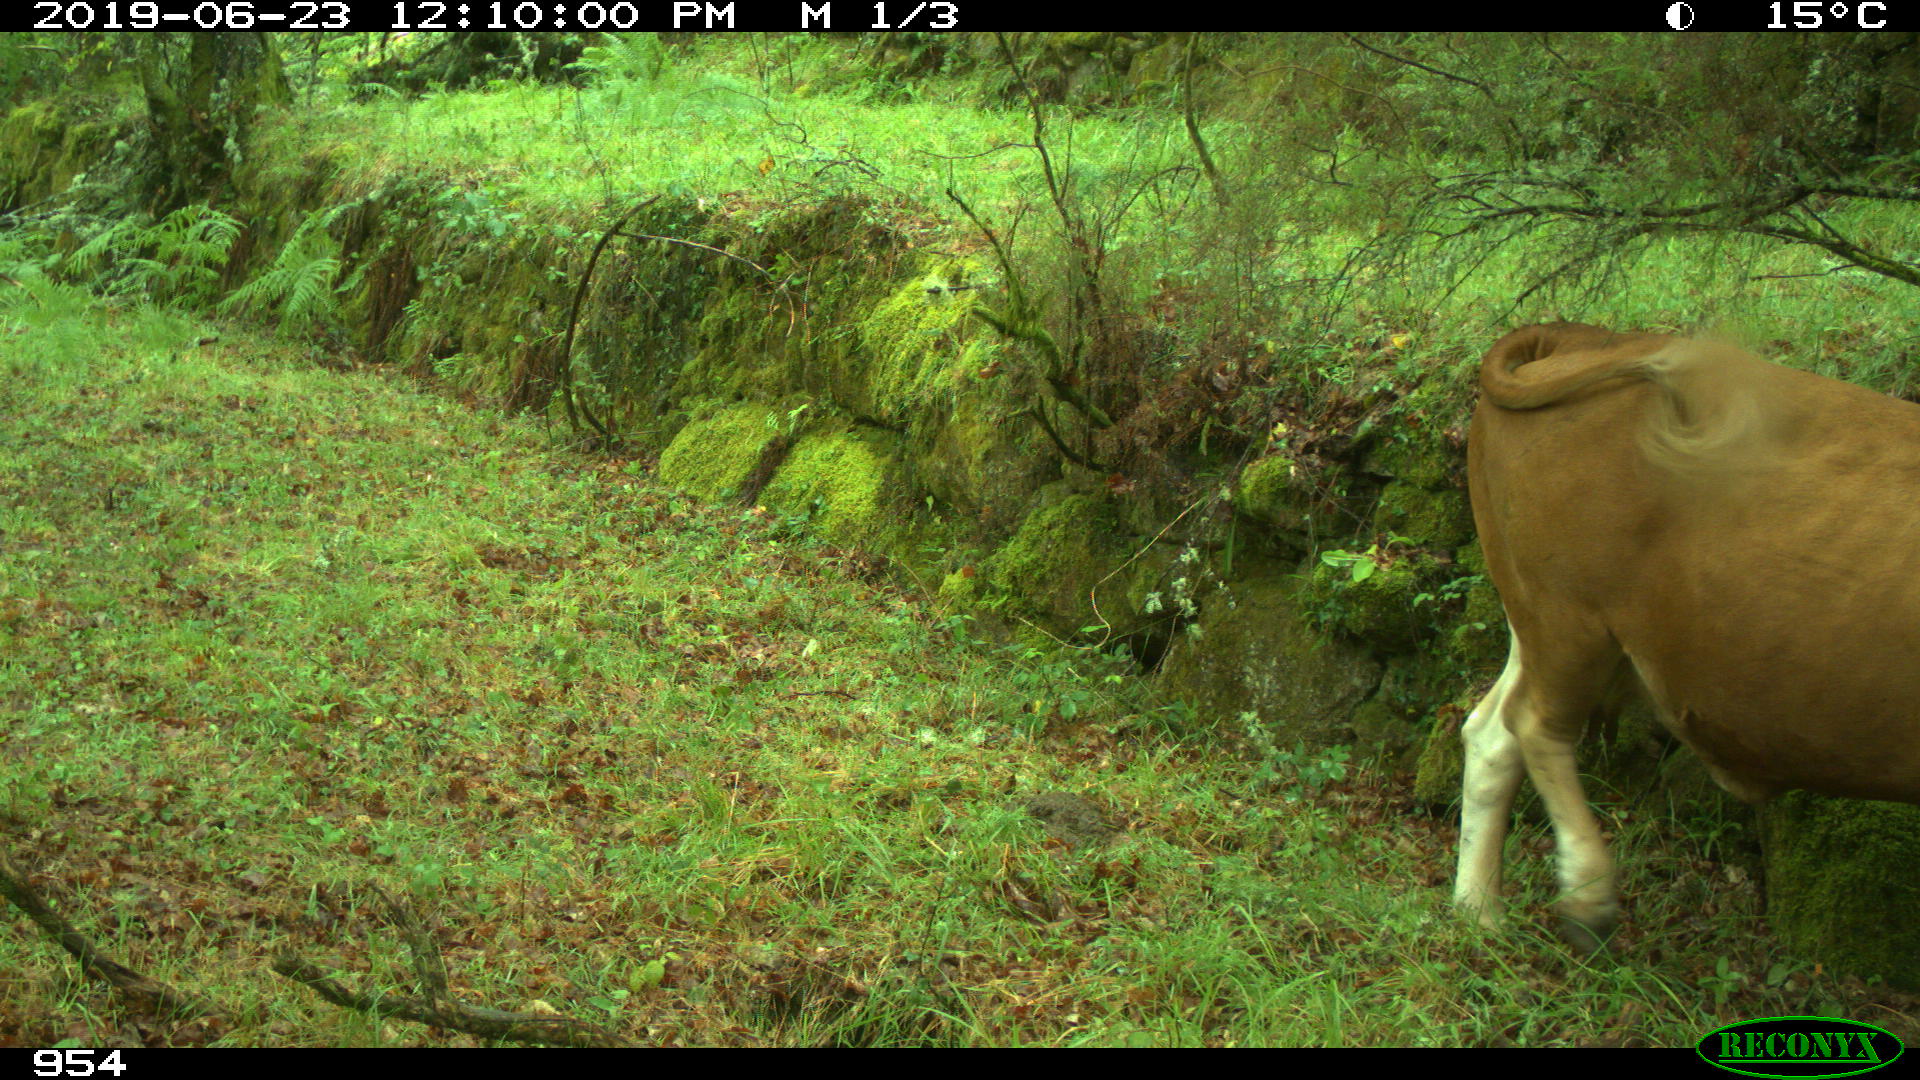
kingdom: Animalia
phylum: Chordata
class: Mammalia
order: Artiodactyla
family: Bovidae
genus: Bos
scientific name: Bos taurus
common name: Domesticated cattle
